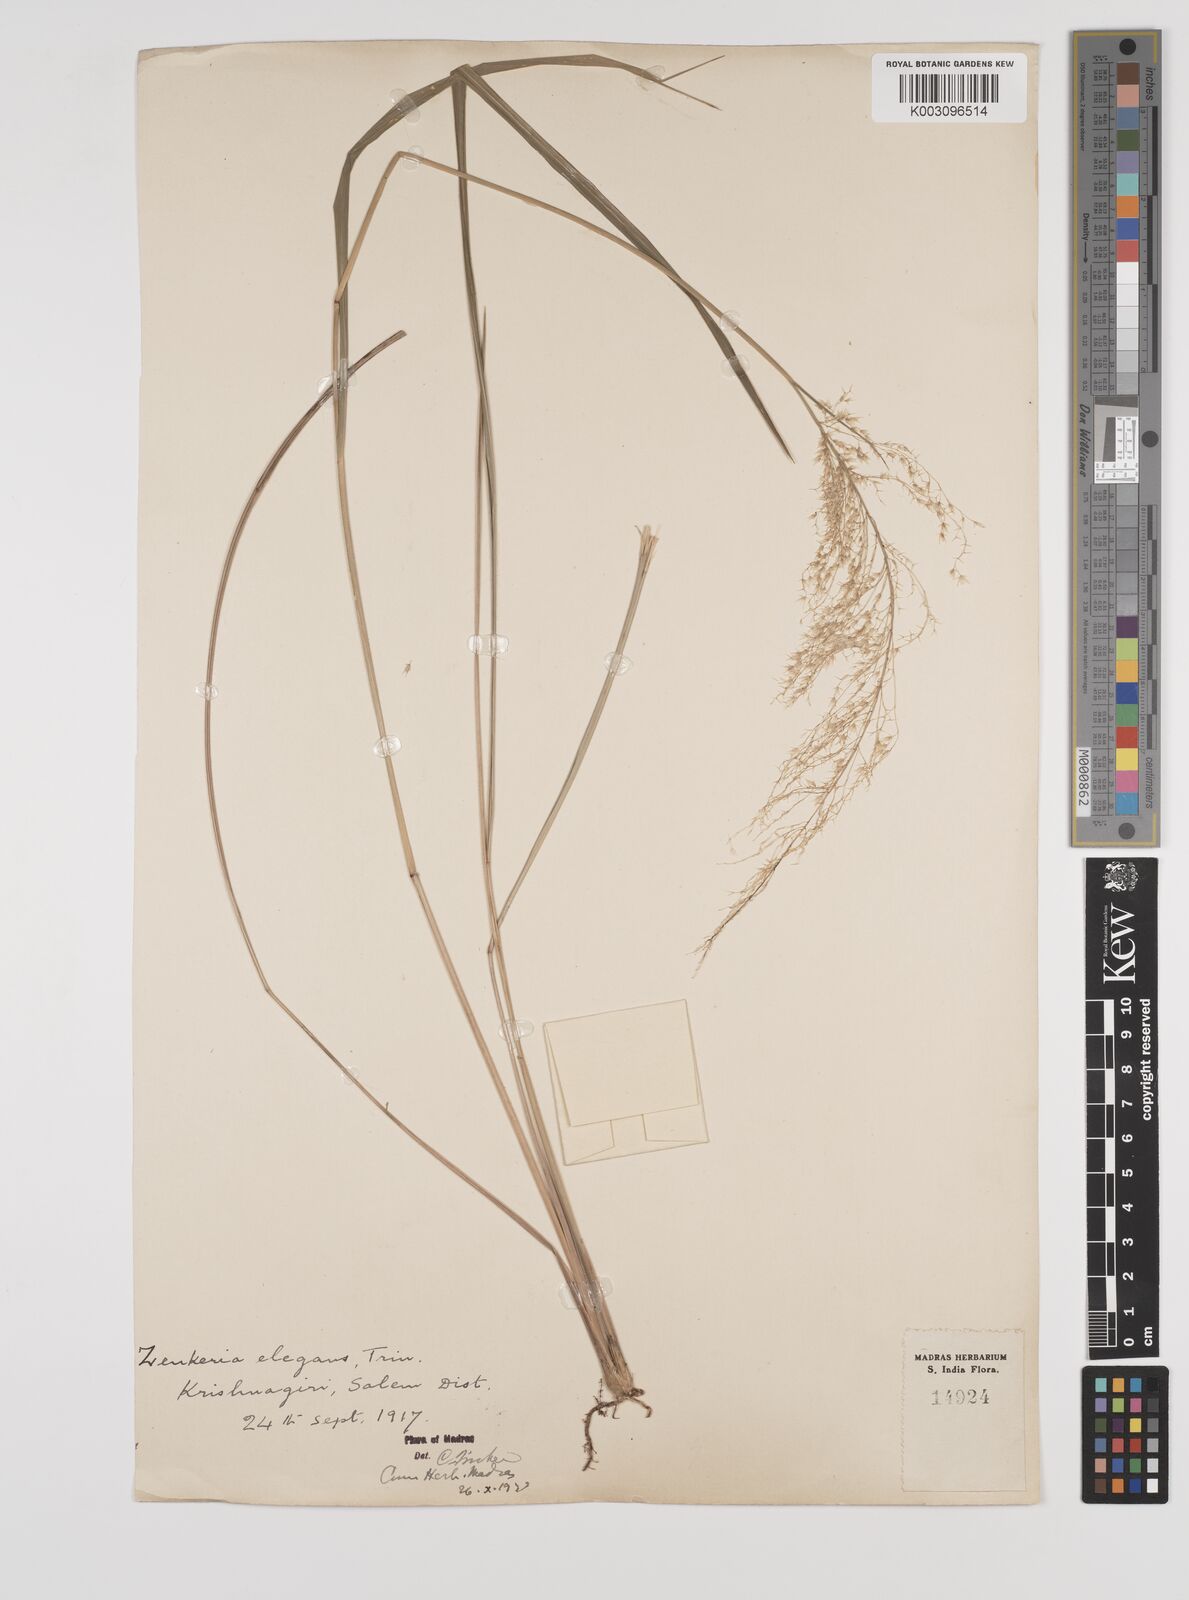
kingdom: Plantae
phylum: Tracheophyta
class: Liliopsida
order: Poales
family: Poaceae
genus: Zenkeria
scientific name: Zenkeria elegans
